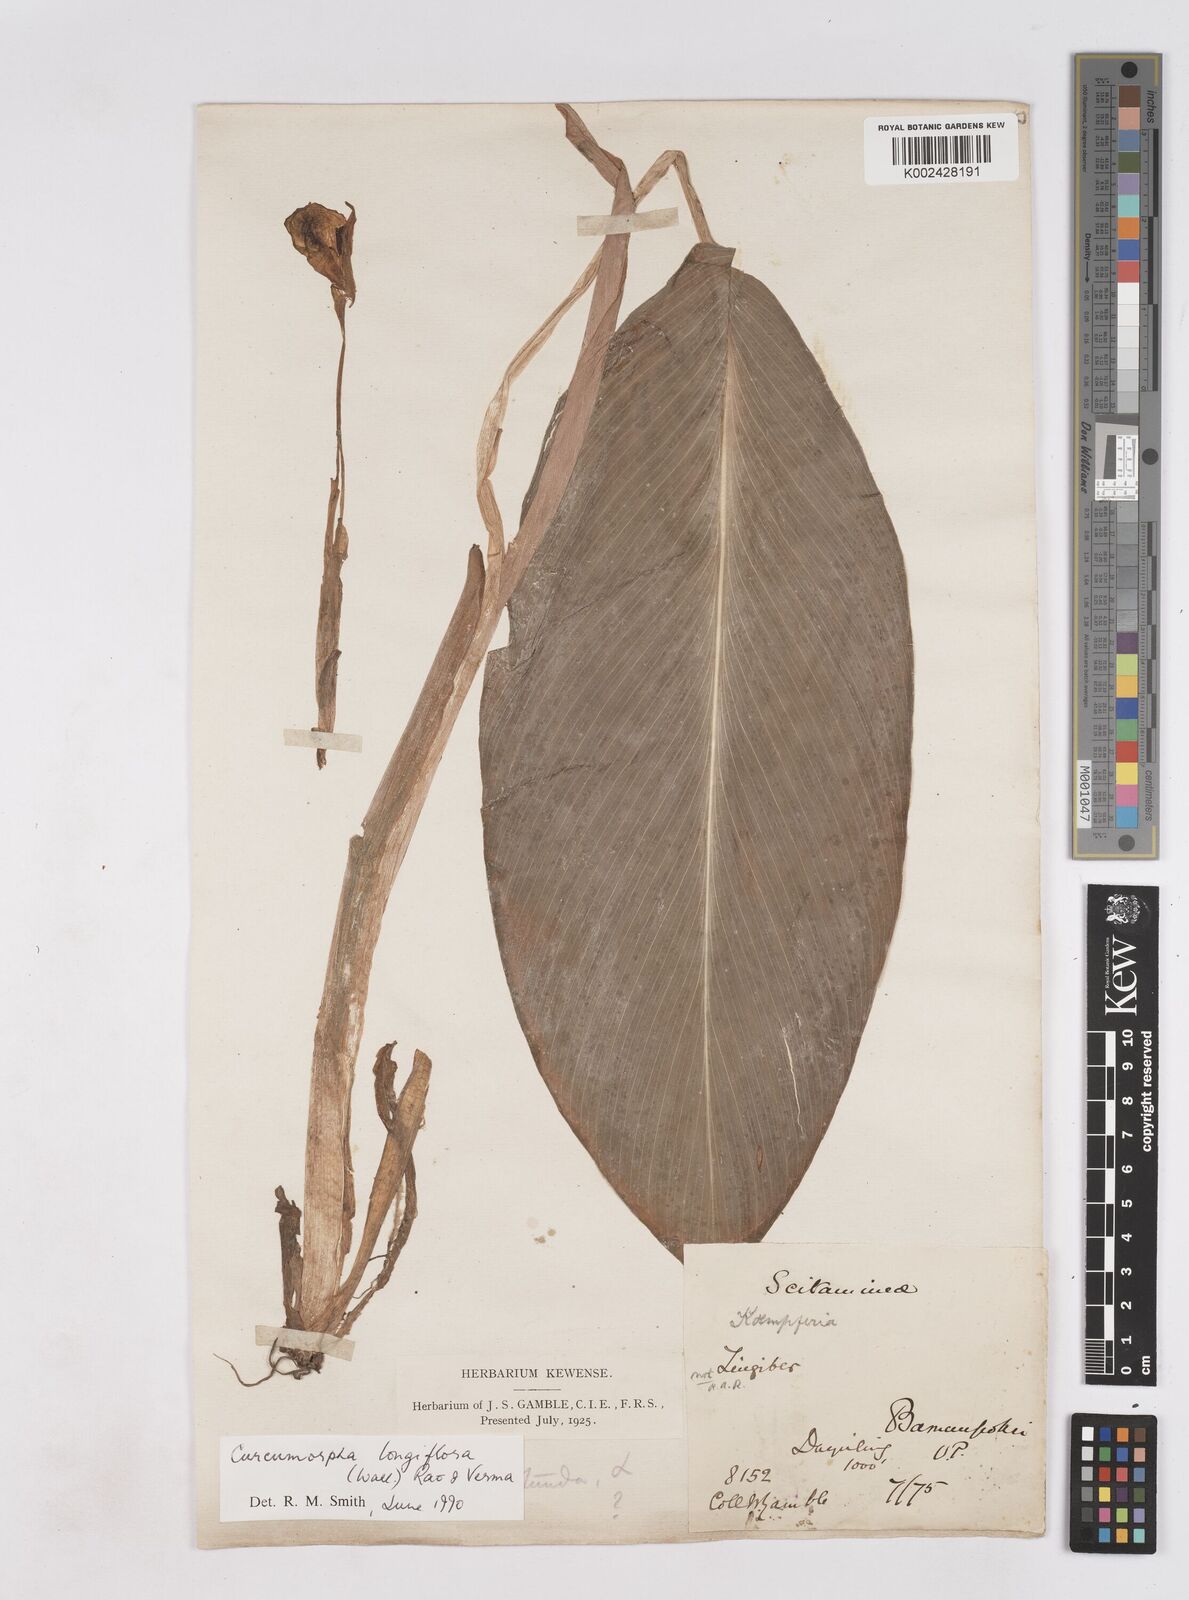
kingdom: Plantae
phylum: Tracheophyta
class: Liliopsida
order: Zingiberales
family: Zingiberaceae
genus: Boesenbergia
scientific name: Boesenbergia longiflora
